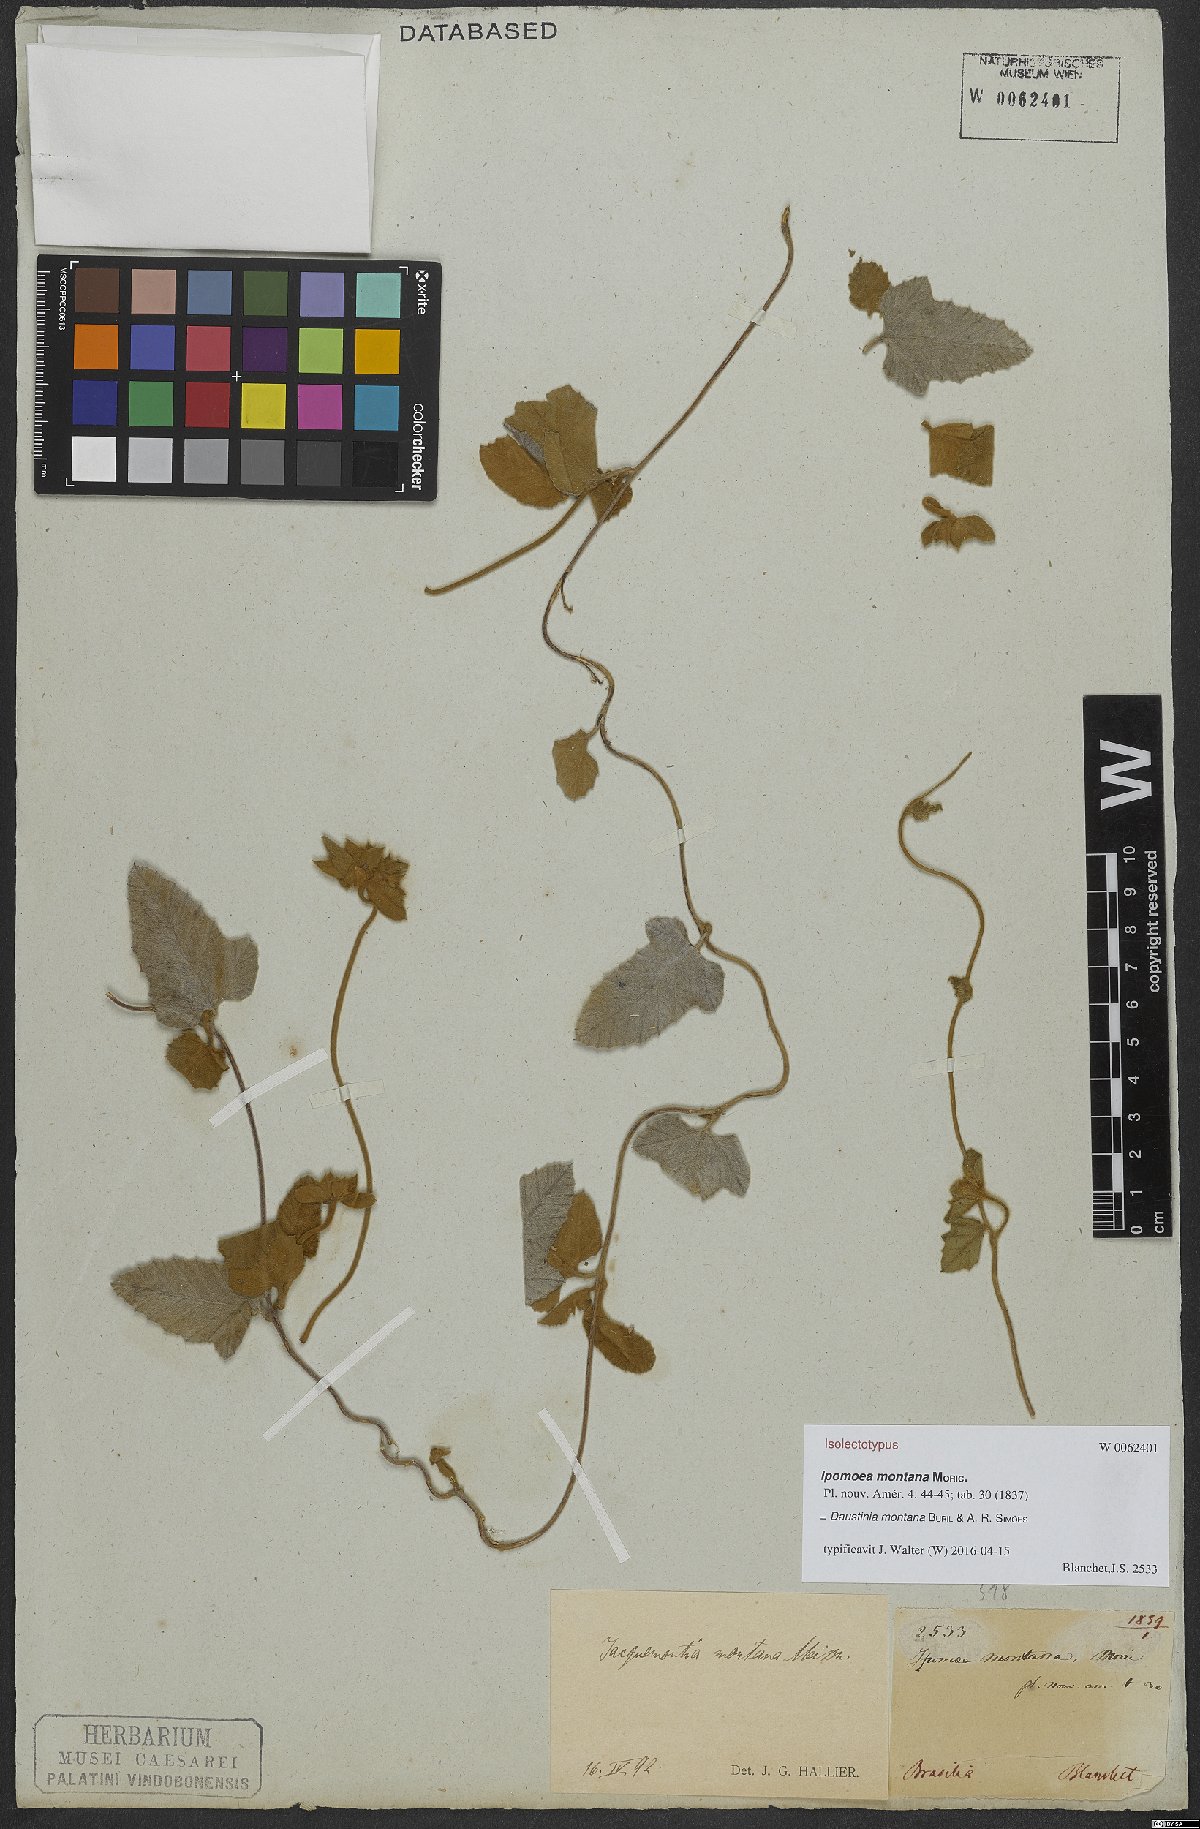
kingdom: Plantae
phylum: Tracheophyta
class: Magnoliopsida
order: Solanales
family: Convolvulaceae
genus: Daustinia
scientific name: Daustinia montana
